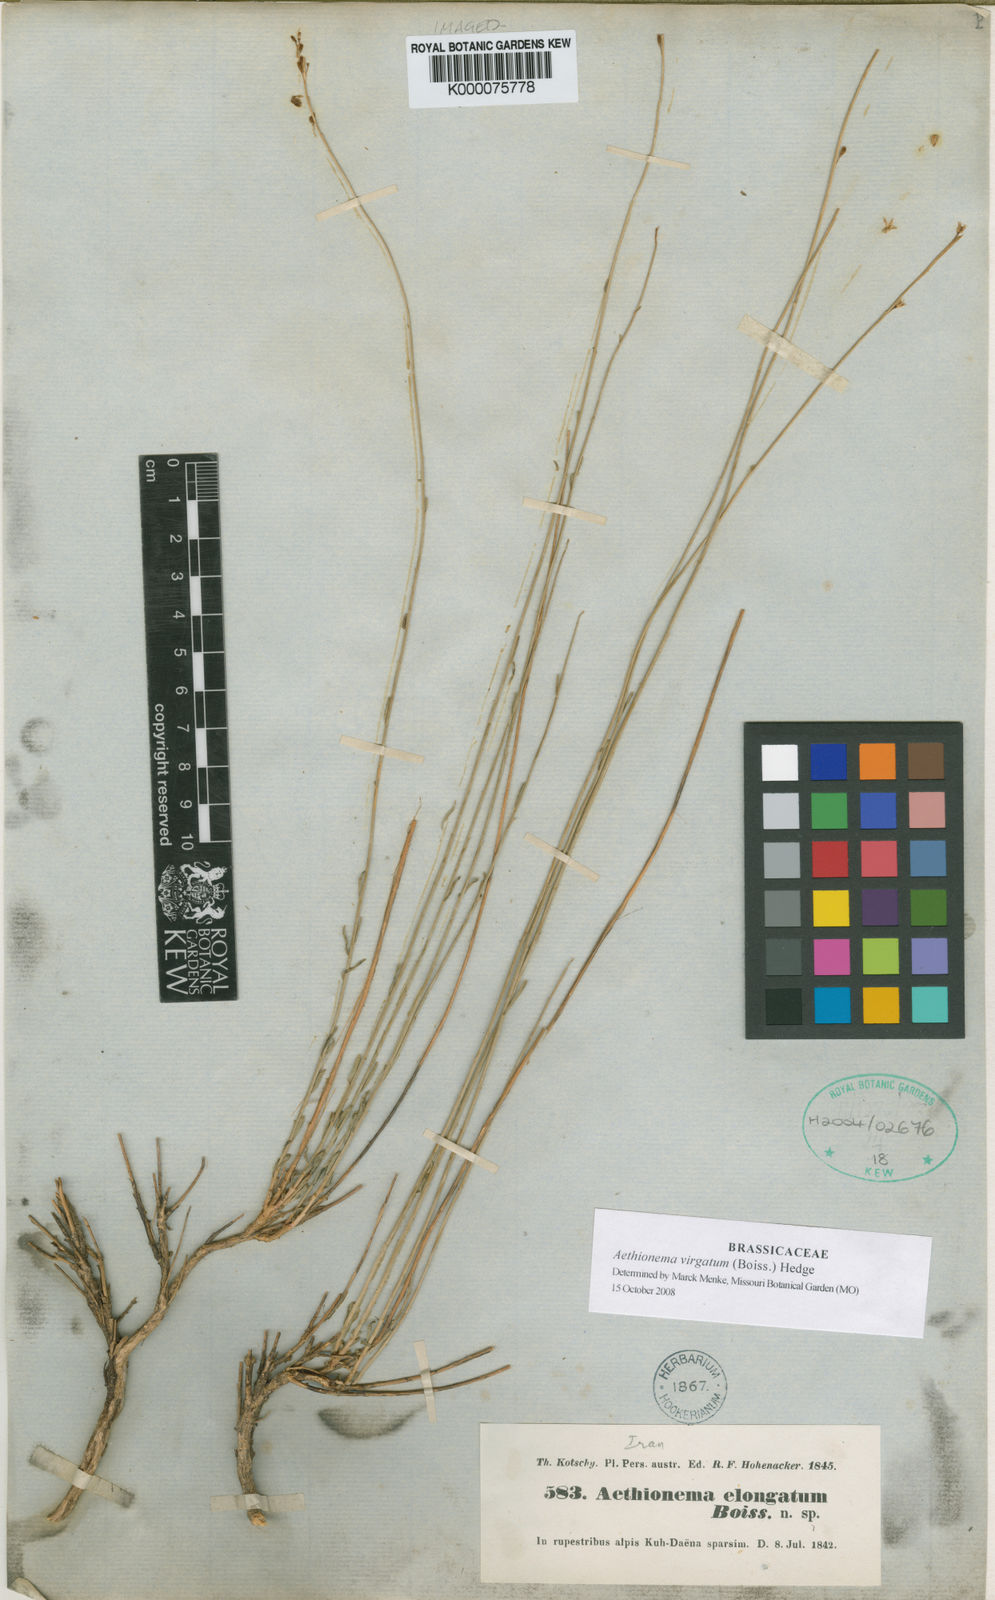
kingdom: Plantae
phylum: Tracheophyta
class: Magnoliopsida
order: Brassicales
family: Brassicaceae
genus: Aethionema
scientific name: Aethionema virgatum
